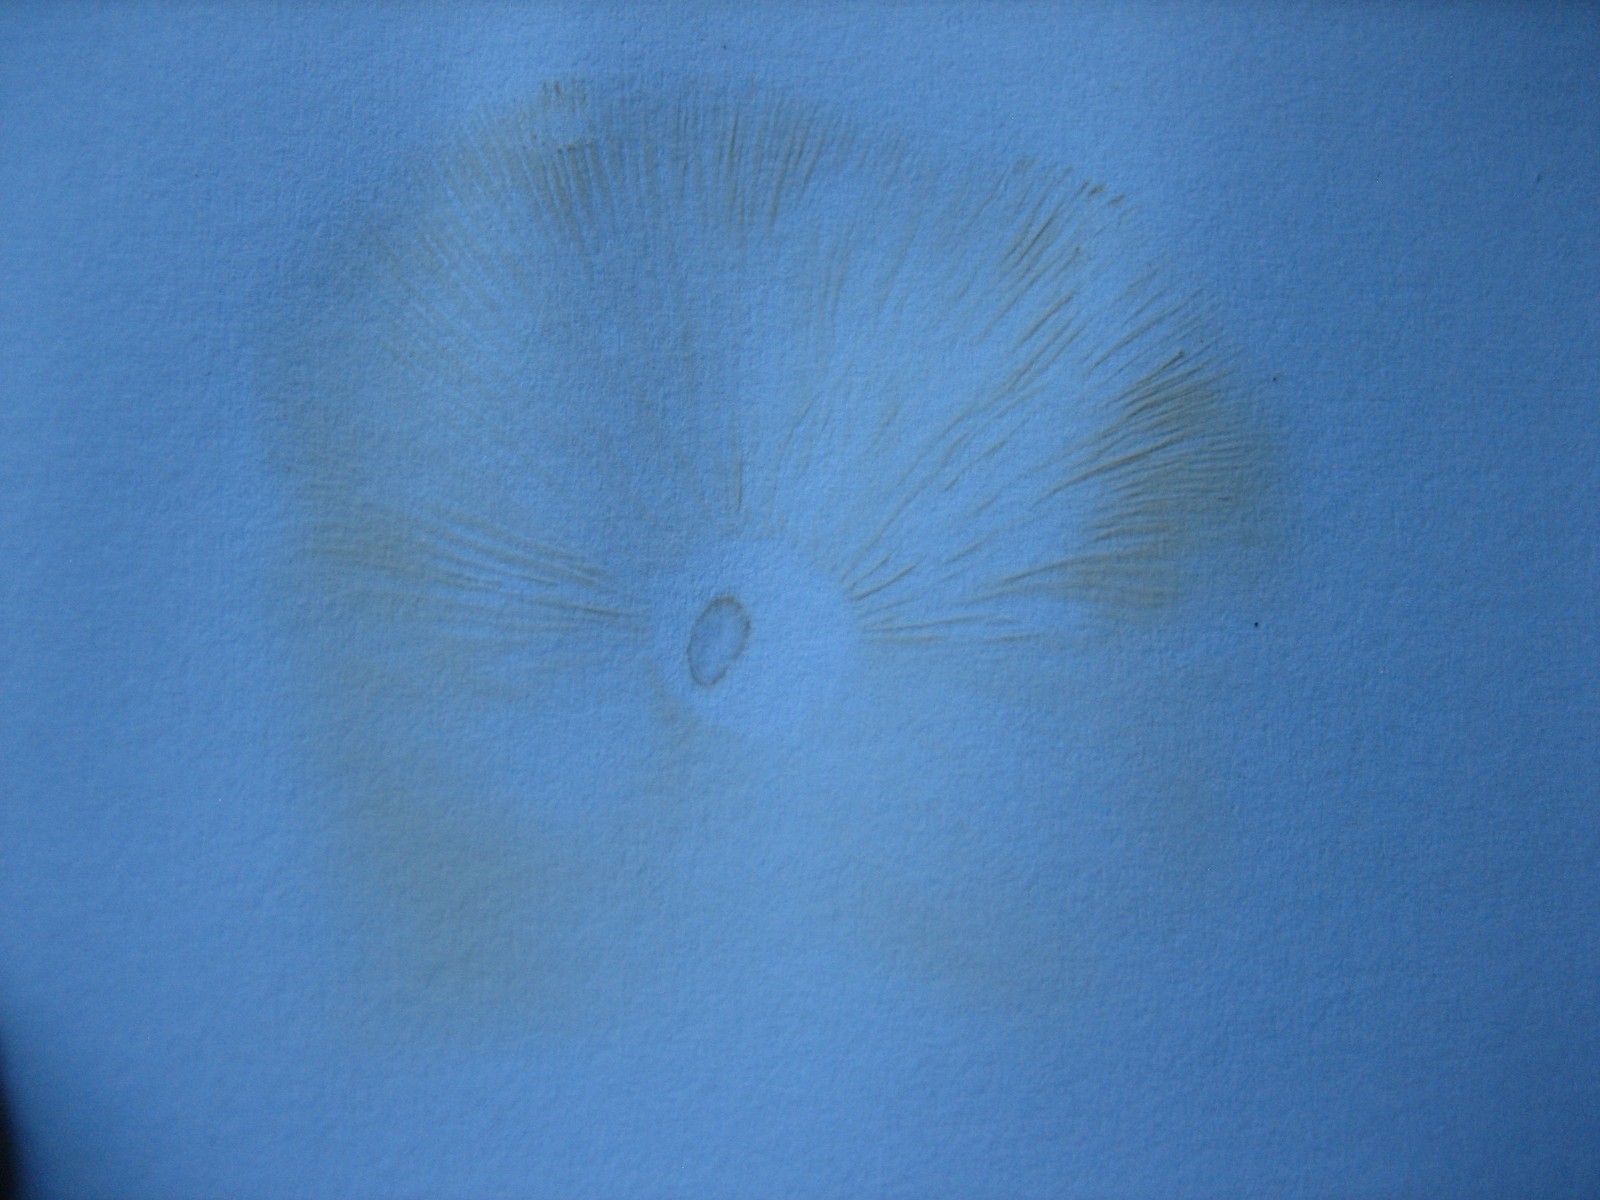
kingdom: Fungi
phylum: Basidiomycota
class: Agaricomycetes
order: Agaricales
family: Omphalotaceae
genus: Rhodocollybia
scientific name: Rhodocollybia maculata
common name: plettet fladhat
